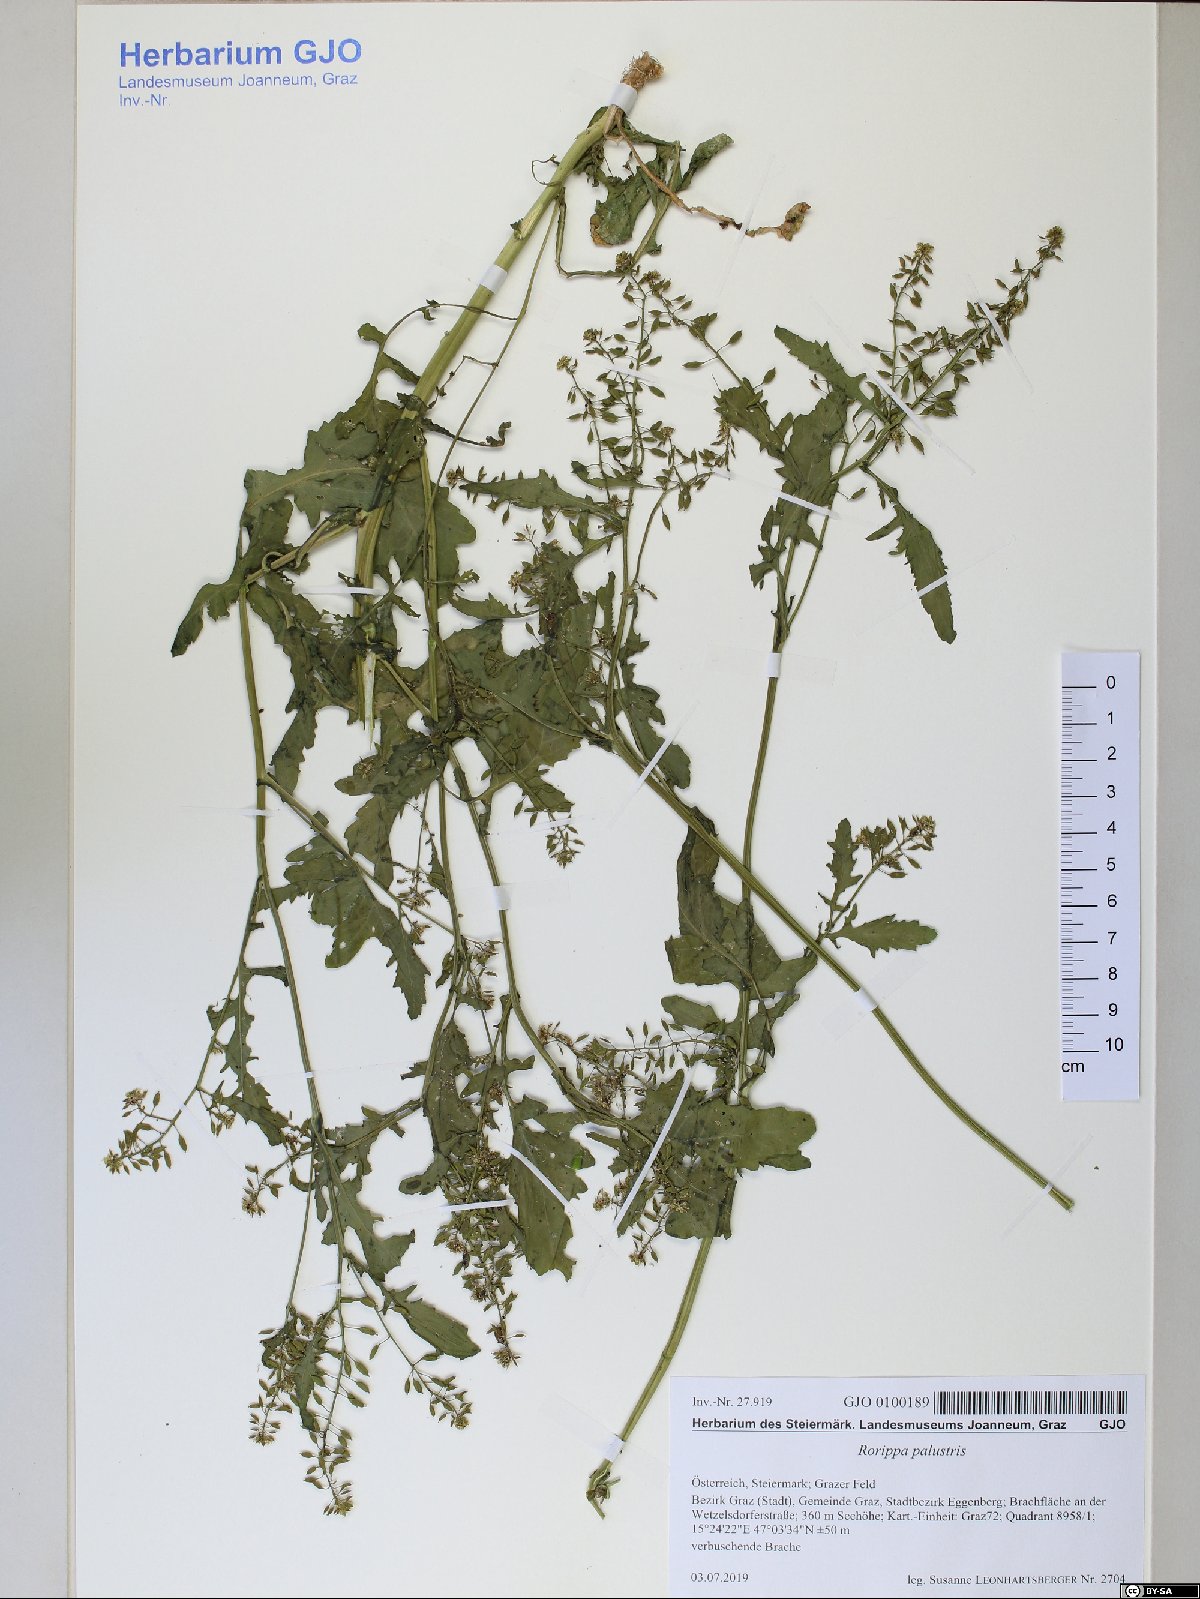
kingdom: Plantae
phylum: Tracheophyta
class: Magnoliopsida
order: Brassicales
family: Brassicaceae
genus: Rorippa
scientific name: Rorippa palustris
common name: Marsh yellow-cress
